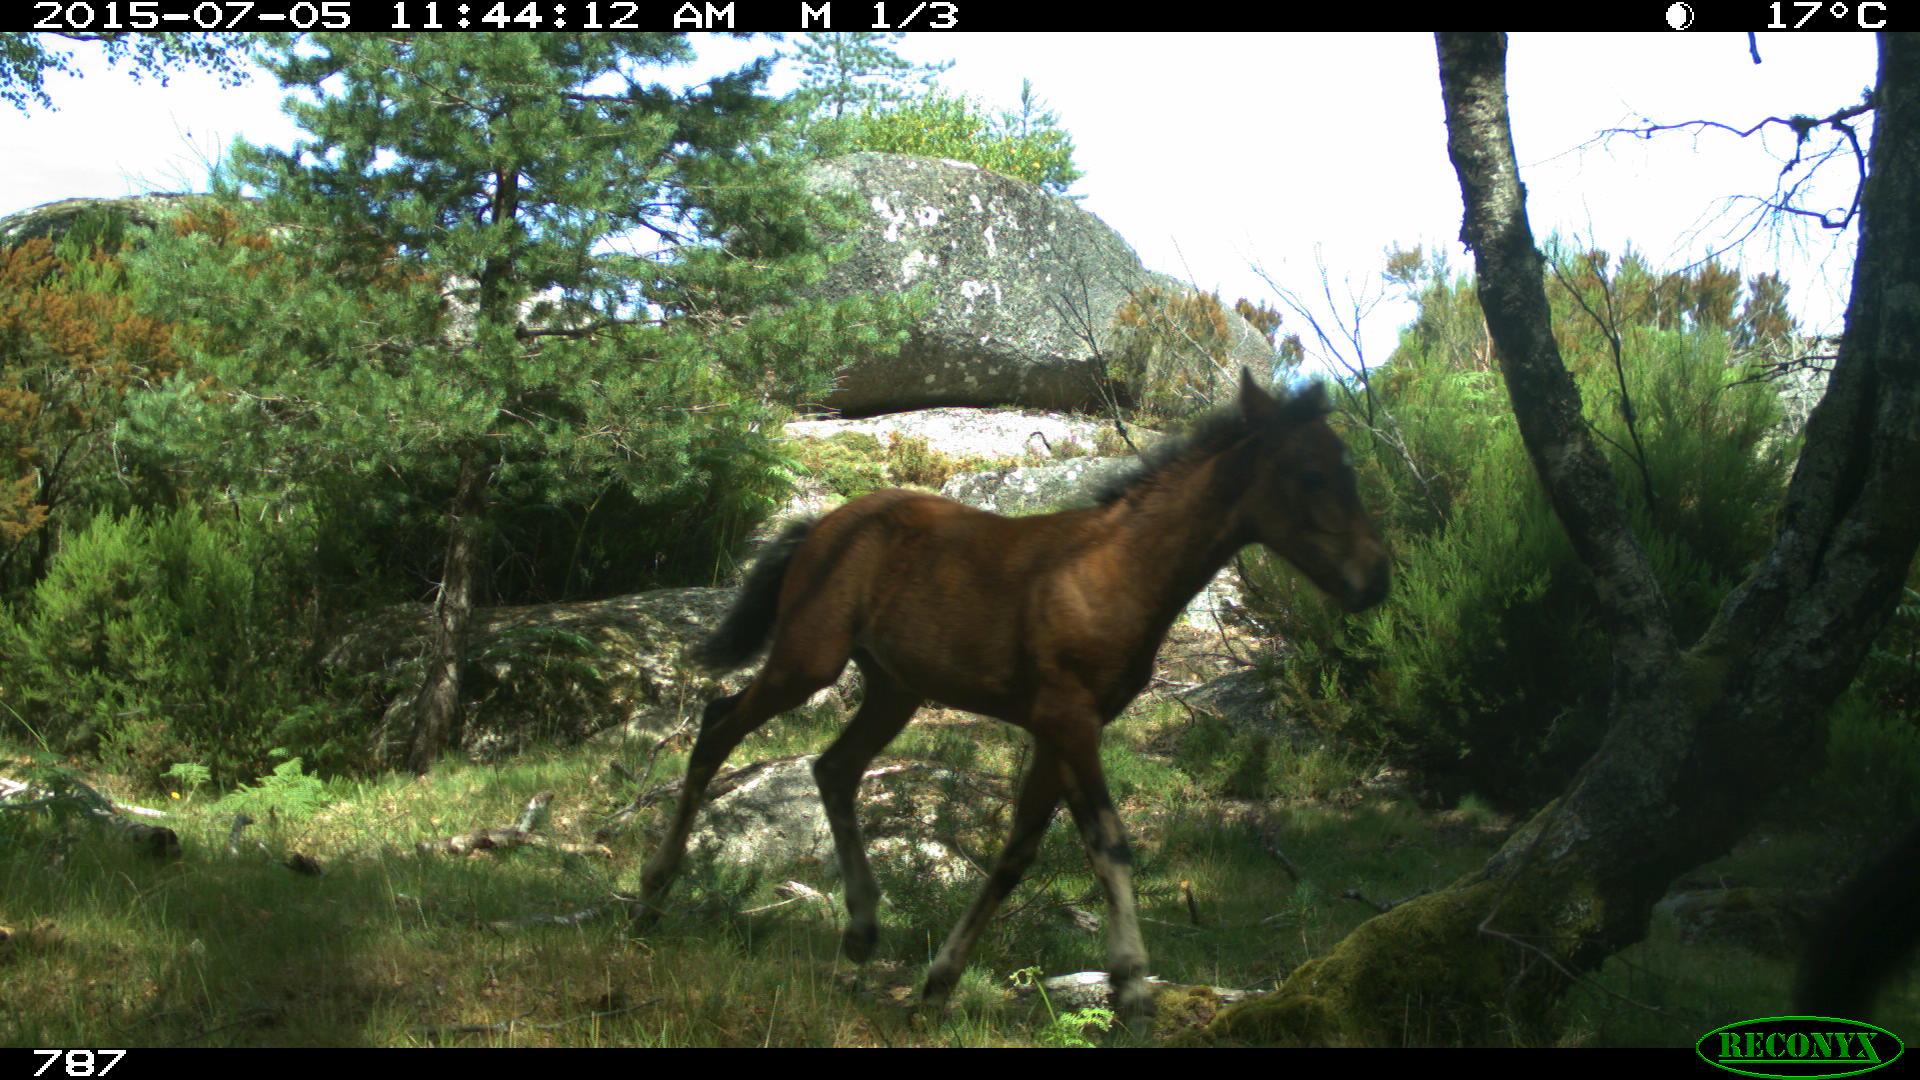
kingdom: Animalia
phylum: Chordata
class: Mammalia
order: Perissodactyla
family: Equidae
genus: Equus
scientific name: Equus caballus
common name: Horse
